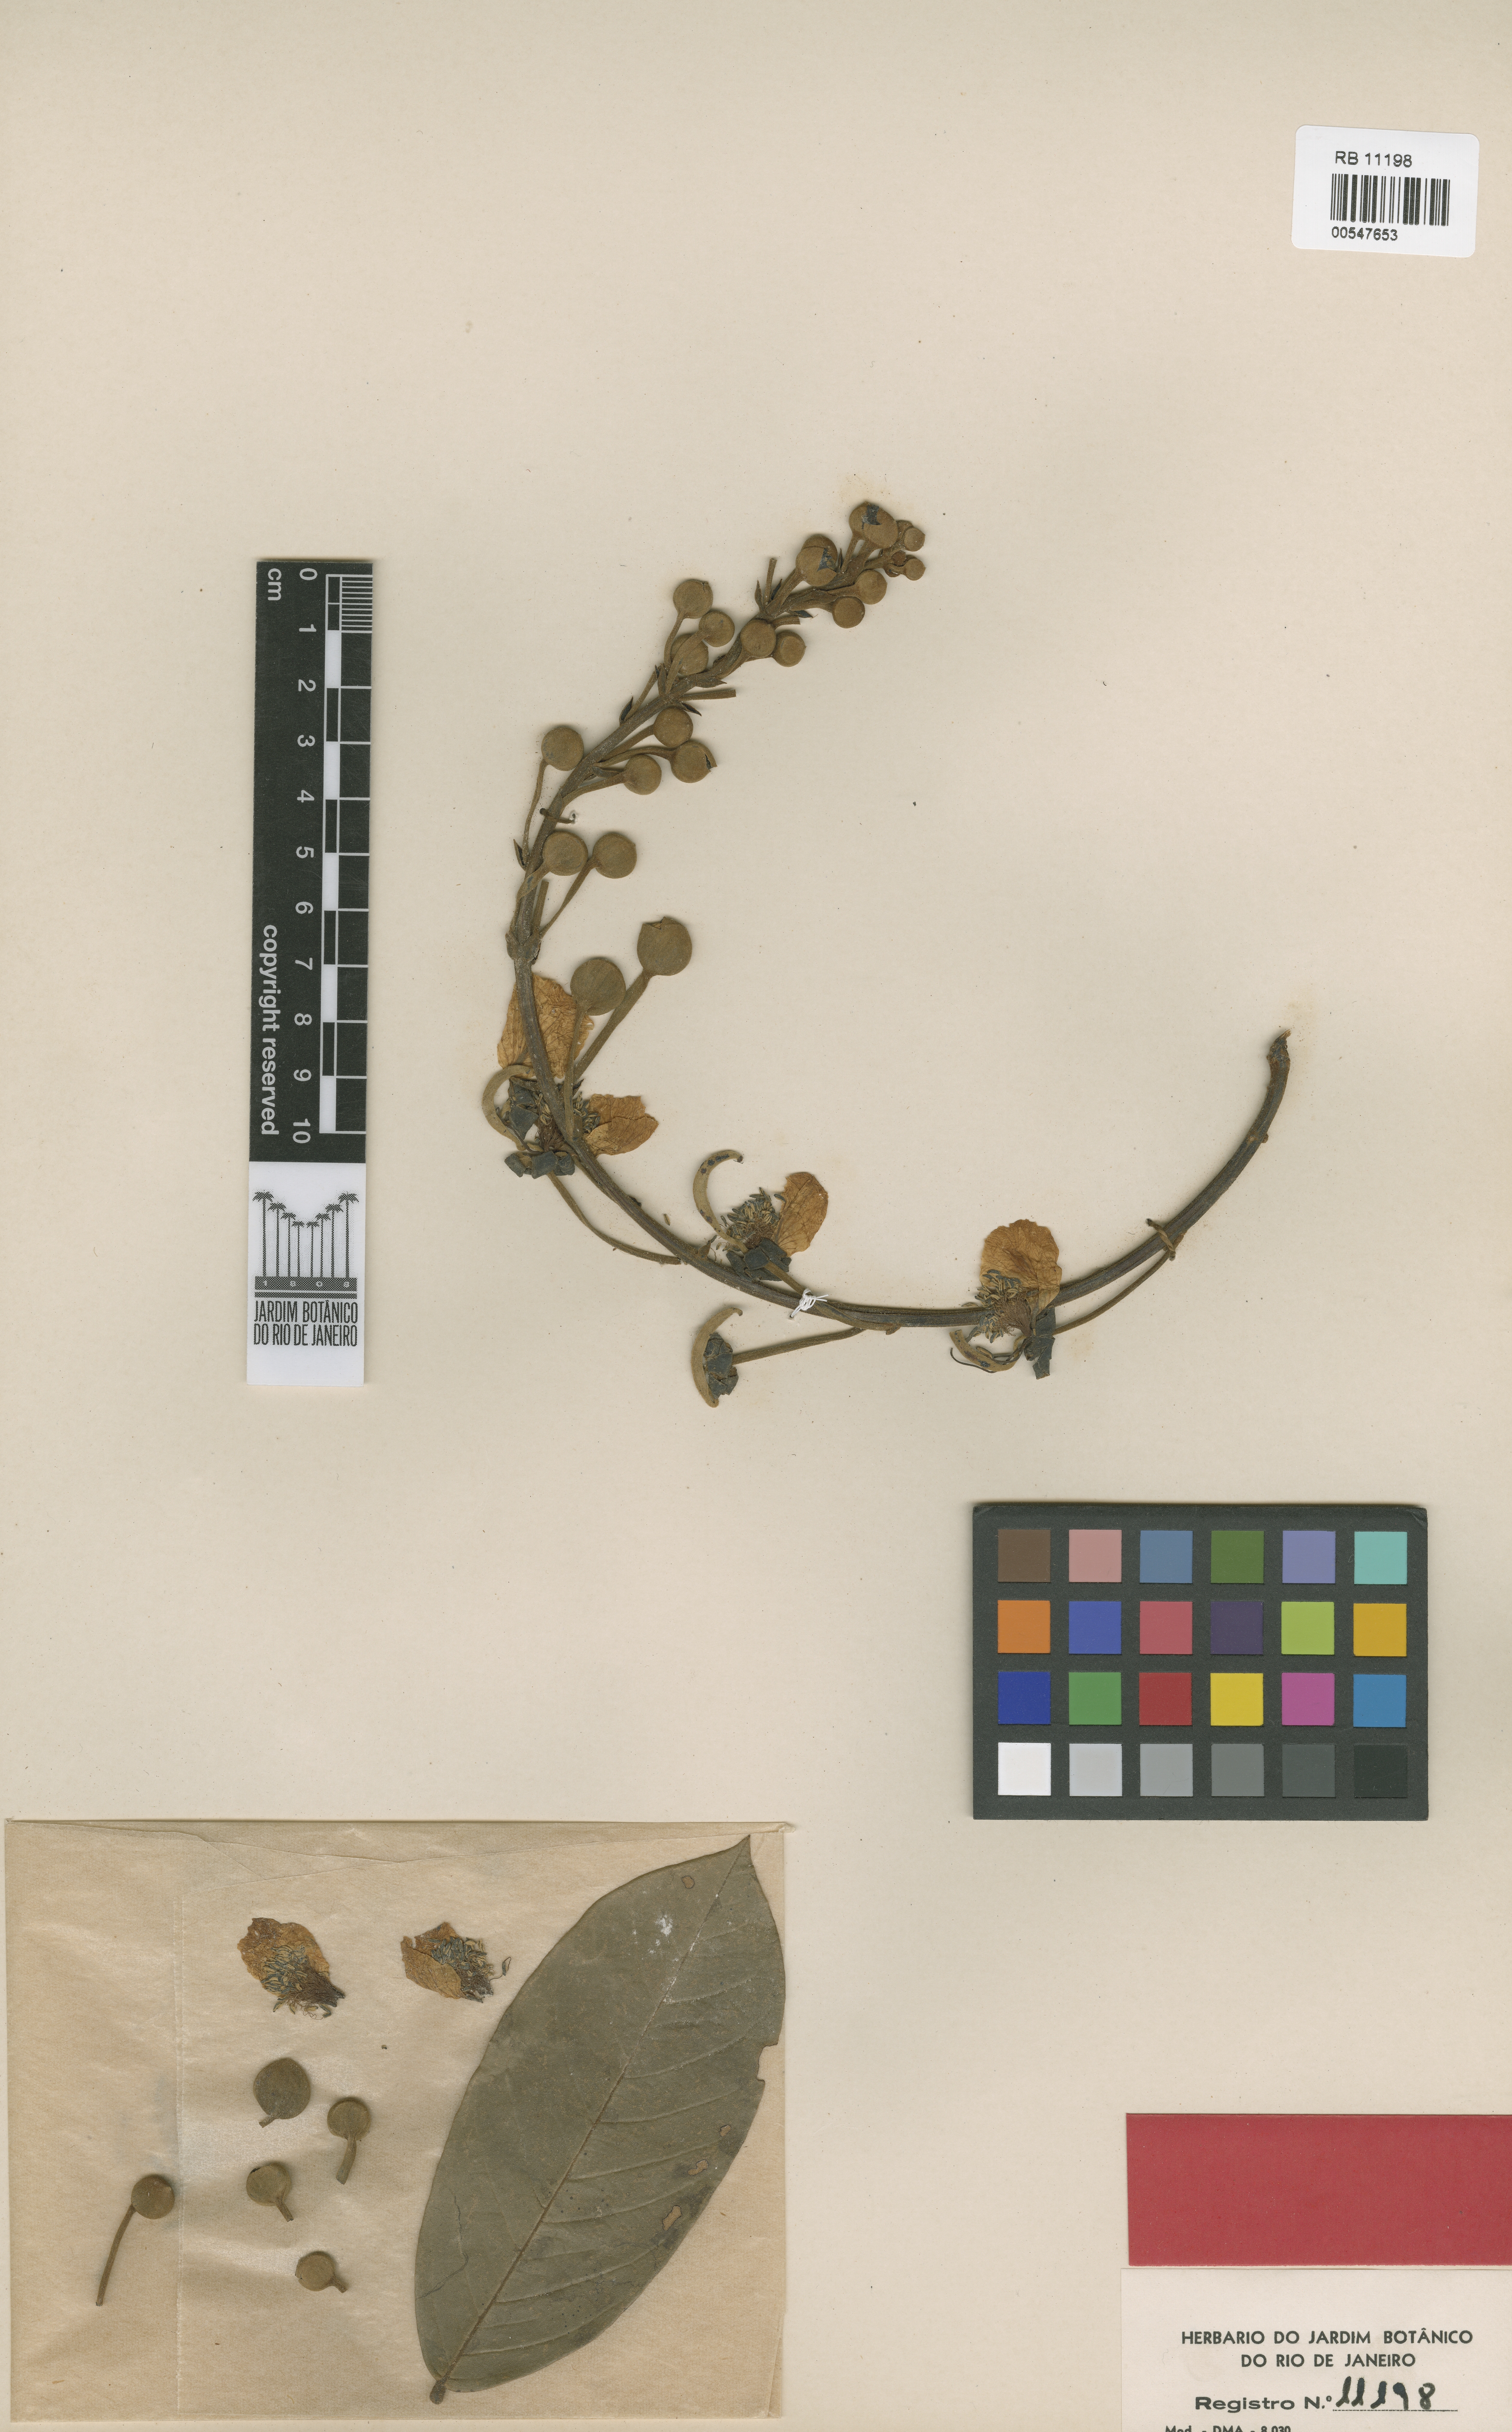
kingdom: Plantae
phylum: Tracheophyta
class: Magnoliopsida
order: Fabales
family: Fabaceae
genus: Swartzia
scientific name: Swartzia mangabalensis
